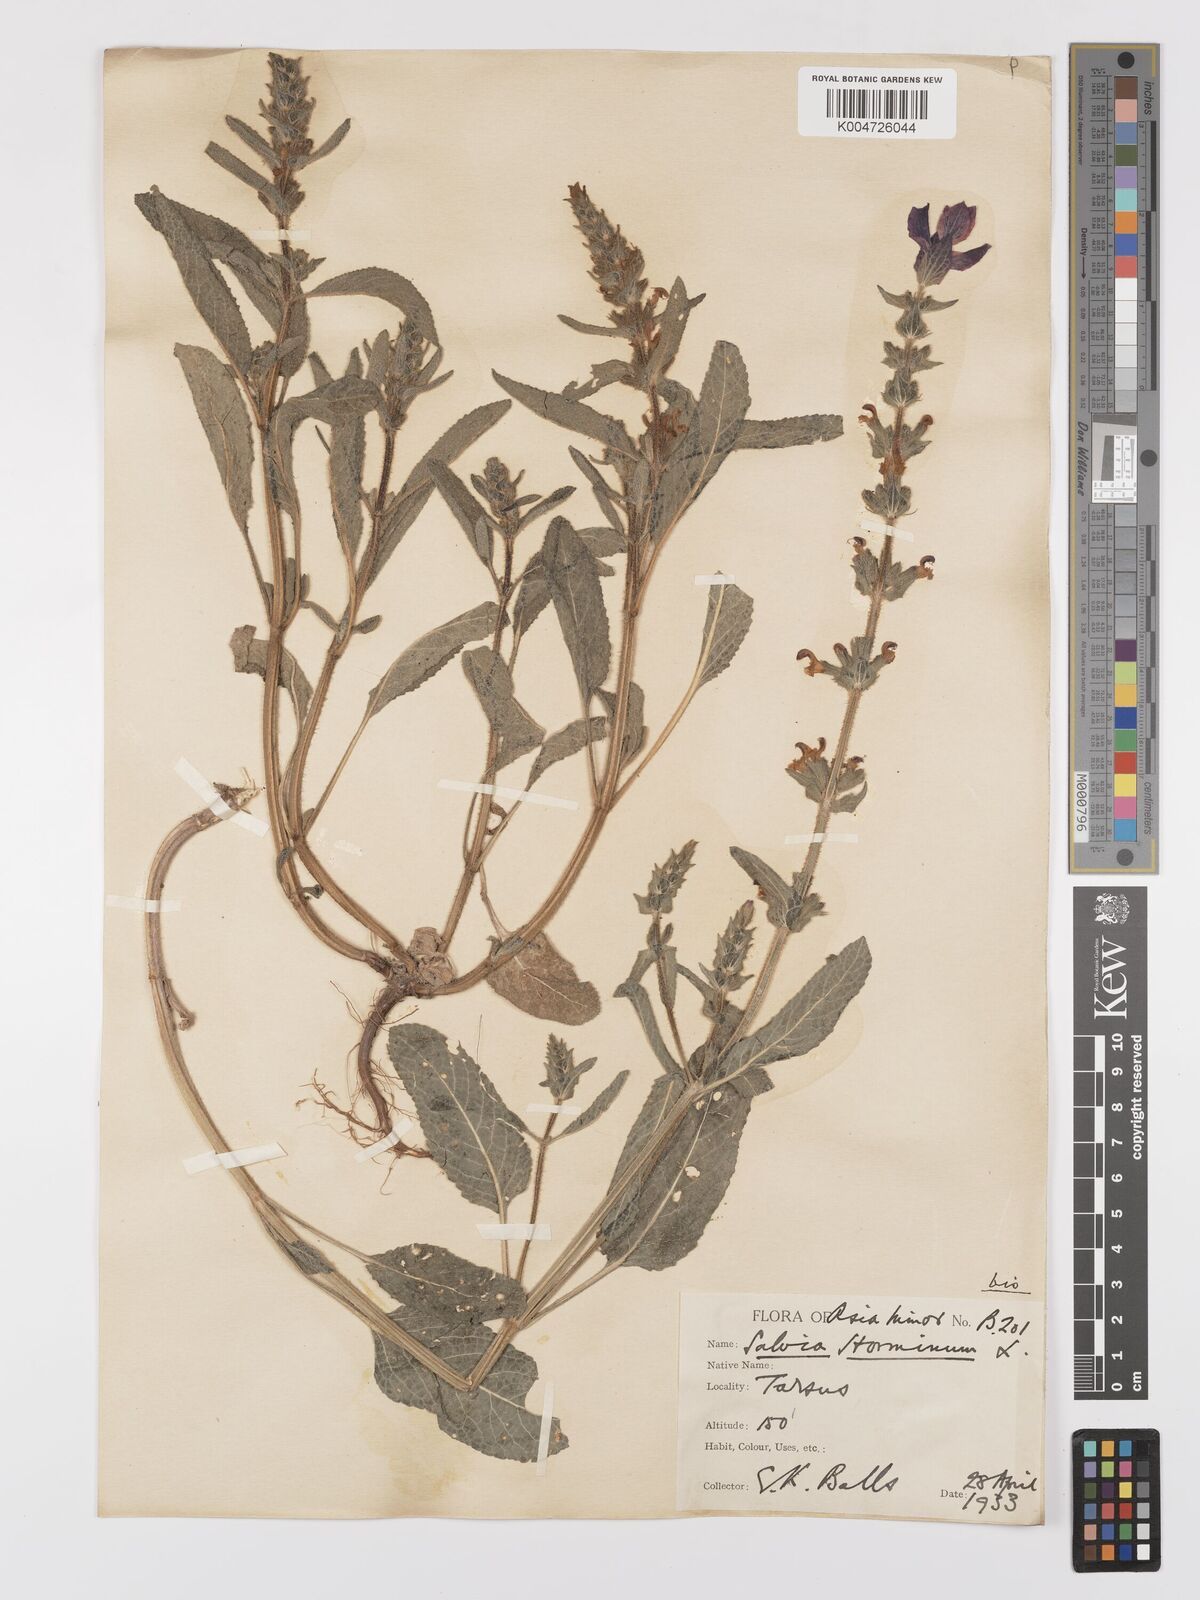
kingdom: Plantae
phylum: Tracheophyta
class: Magnoliopsida
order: Lamiales
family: Lamiaceae
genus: Salvia
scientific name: Salvia viridis
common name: Annual clary
